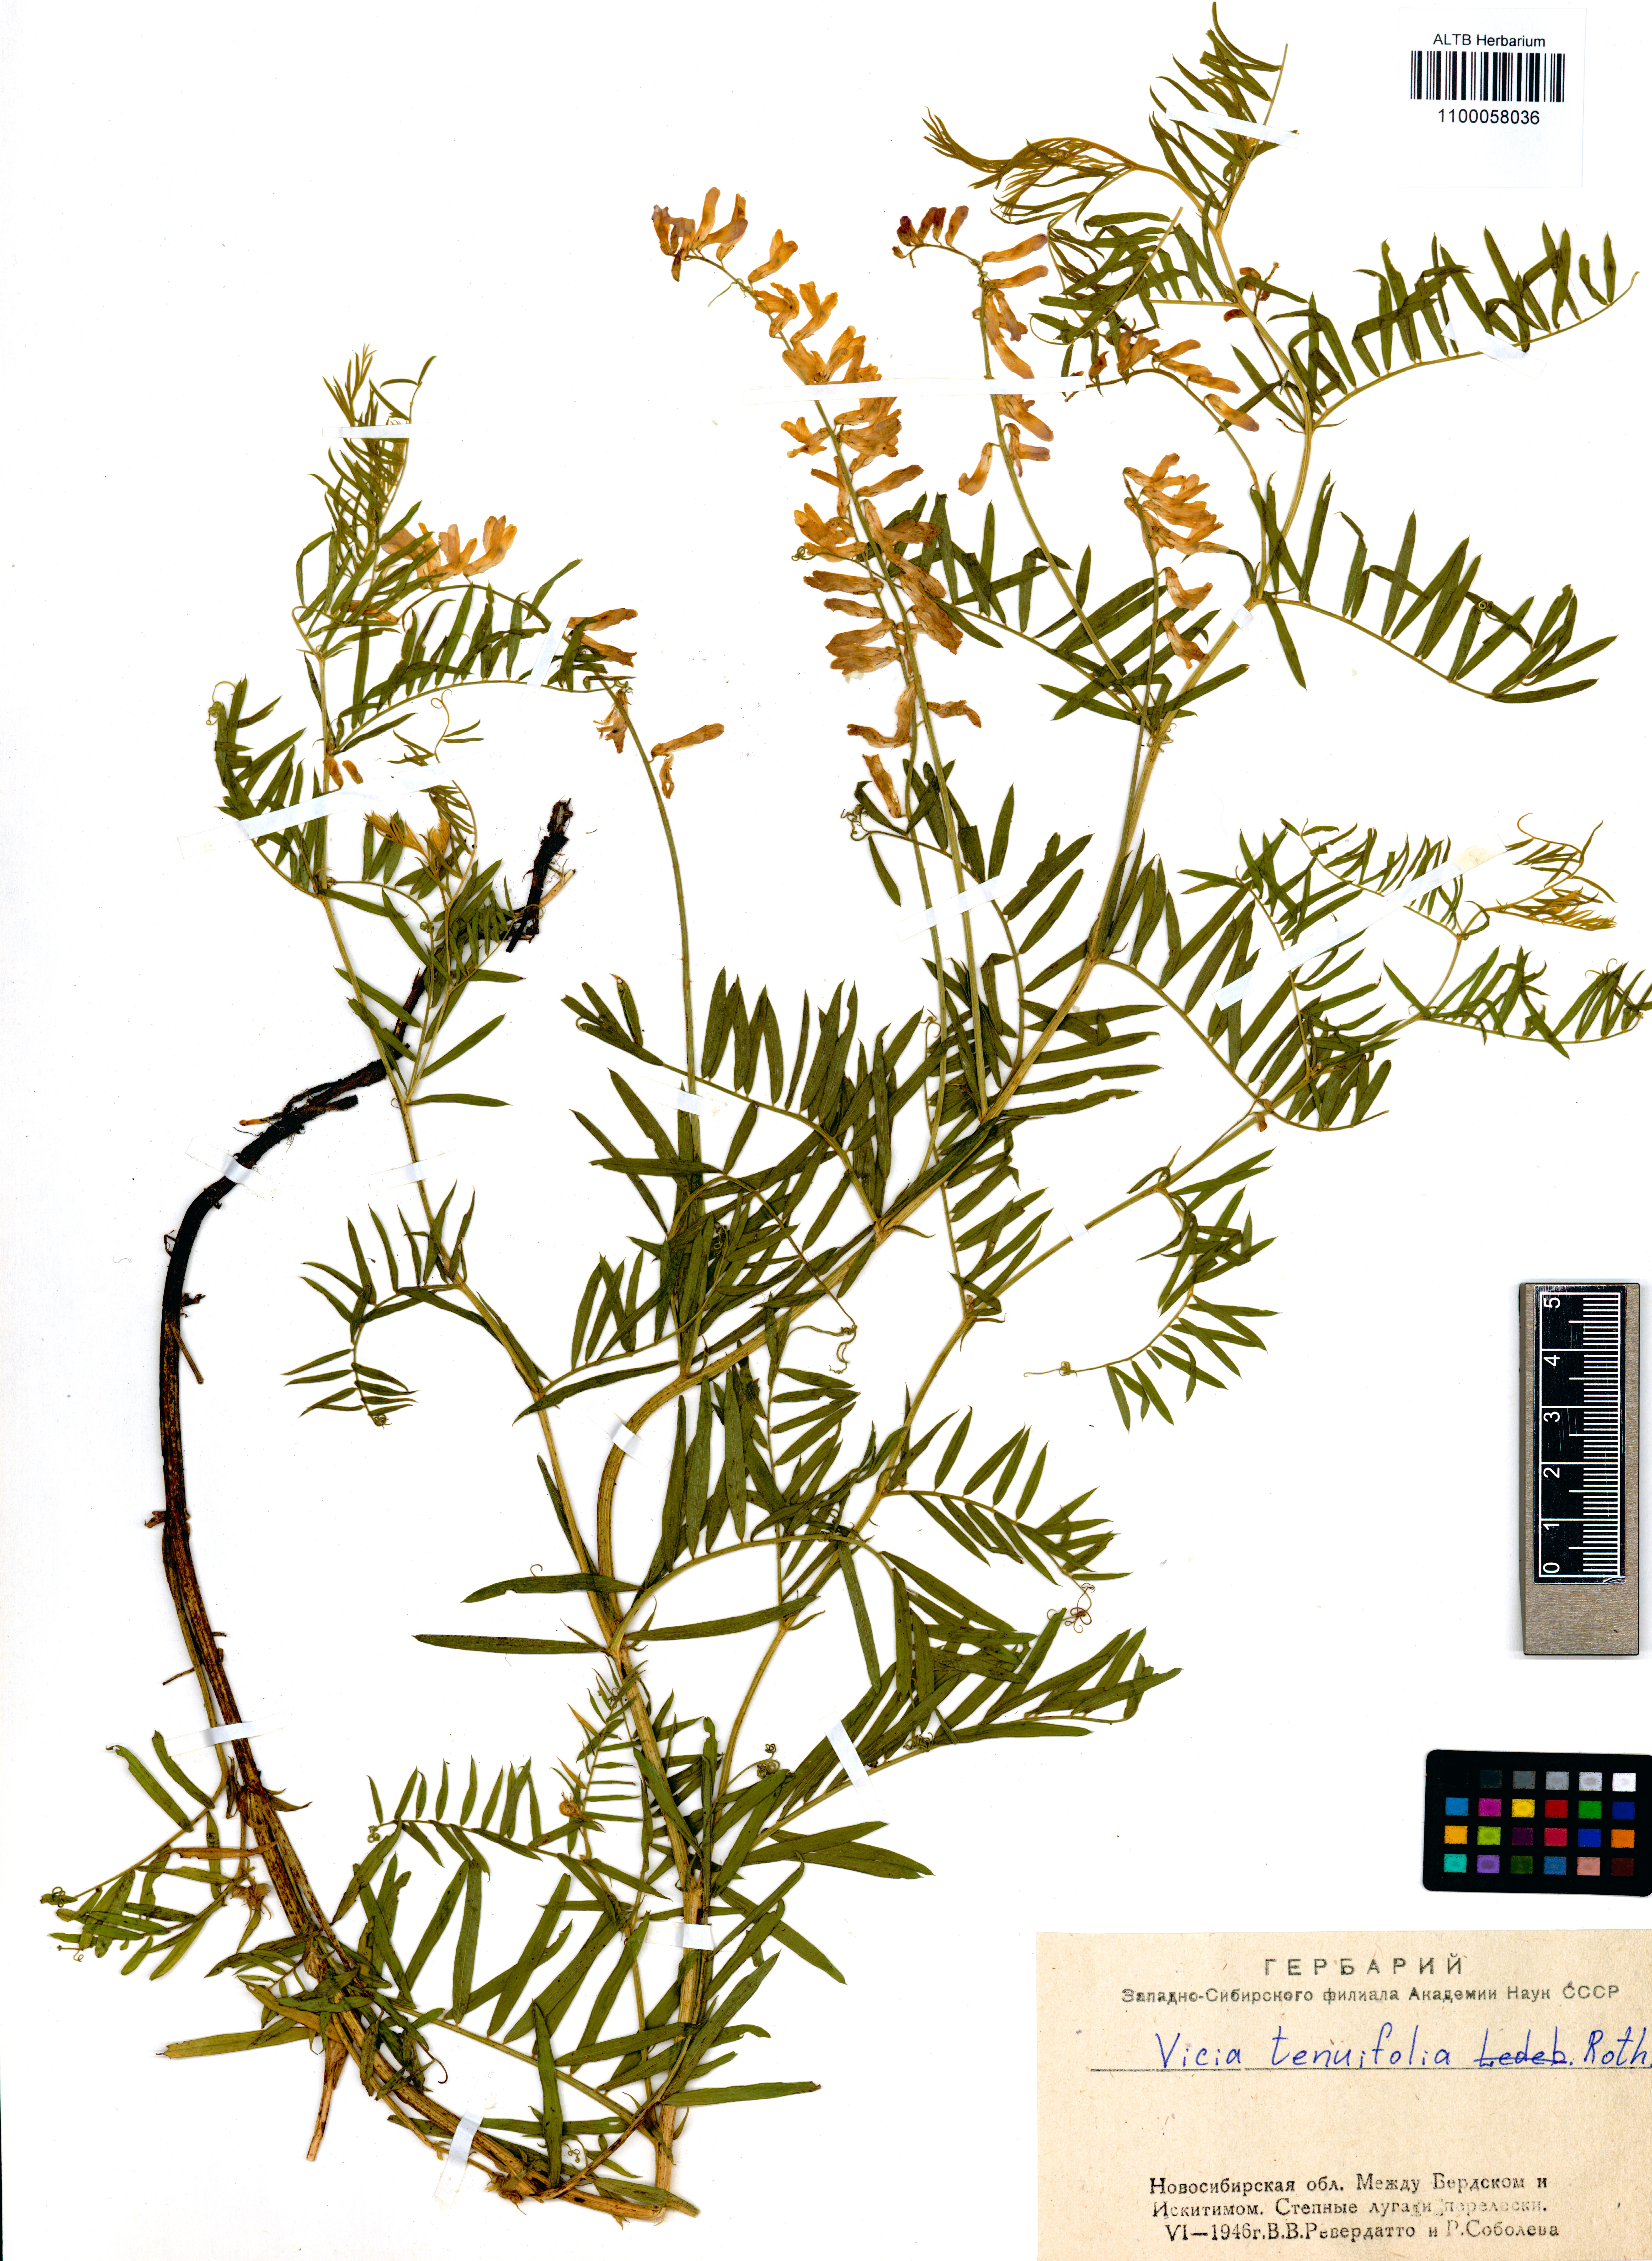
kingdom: Plantae
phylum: Tracheophyta
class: Magnoliopsida
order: Fabales
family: Fabaceae
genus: Vicia
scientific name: Vicia tenuifolia
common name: Fine-leaved vetch
